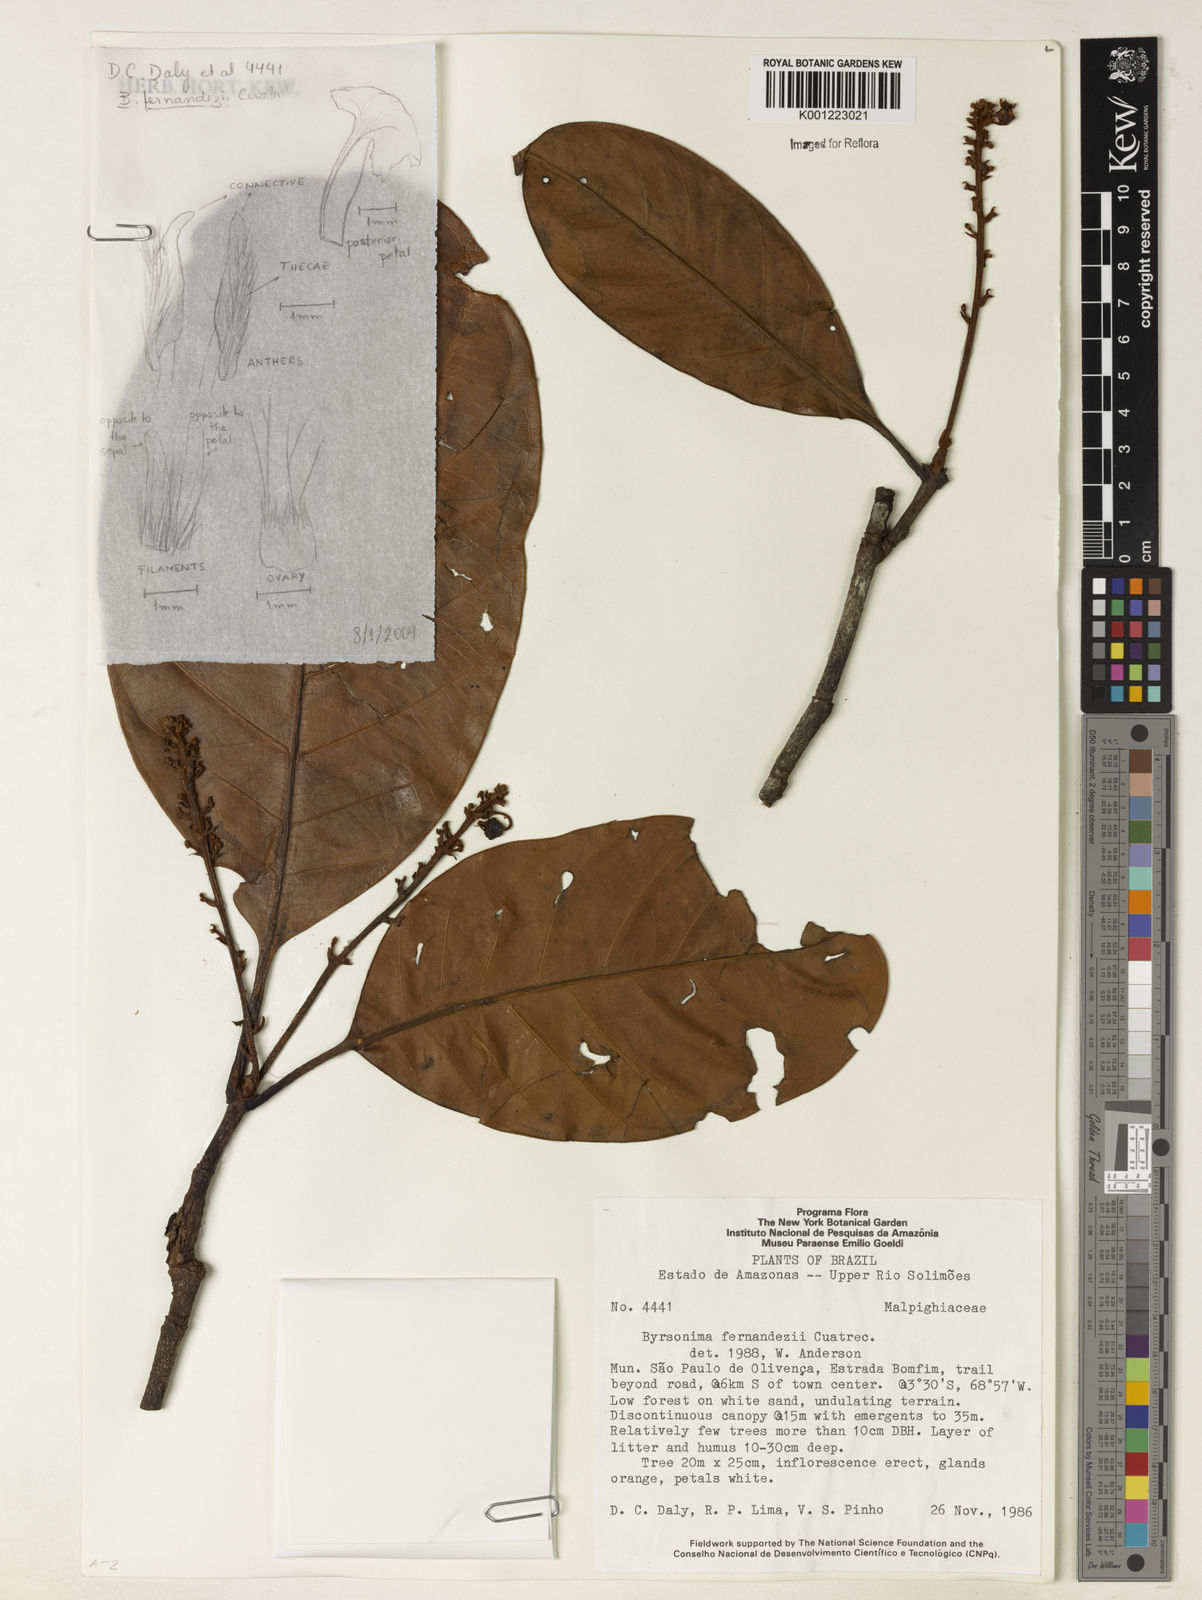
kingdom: Plantae
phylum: Tracheophyta
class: Magnoliopsida
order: Malpighiales
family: Malpighiaceae
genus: Byrsonima
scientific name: Byrsonima fernandezii
